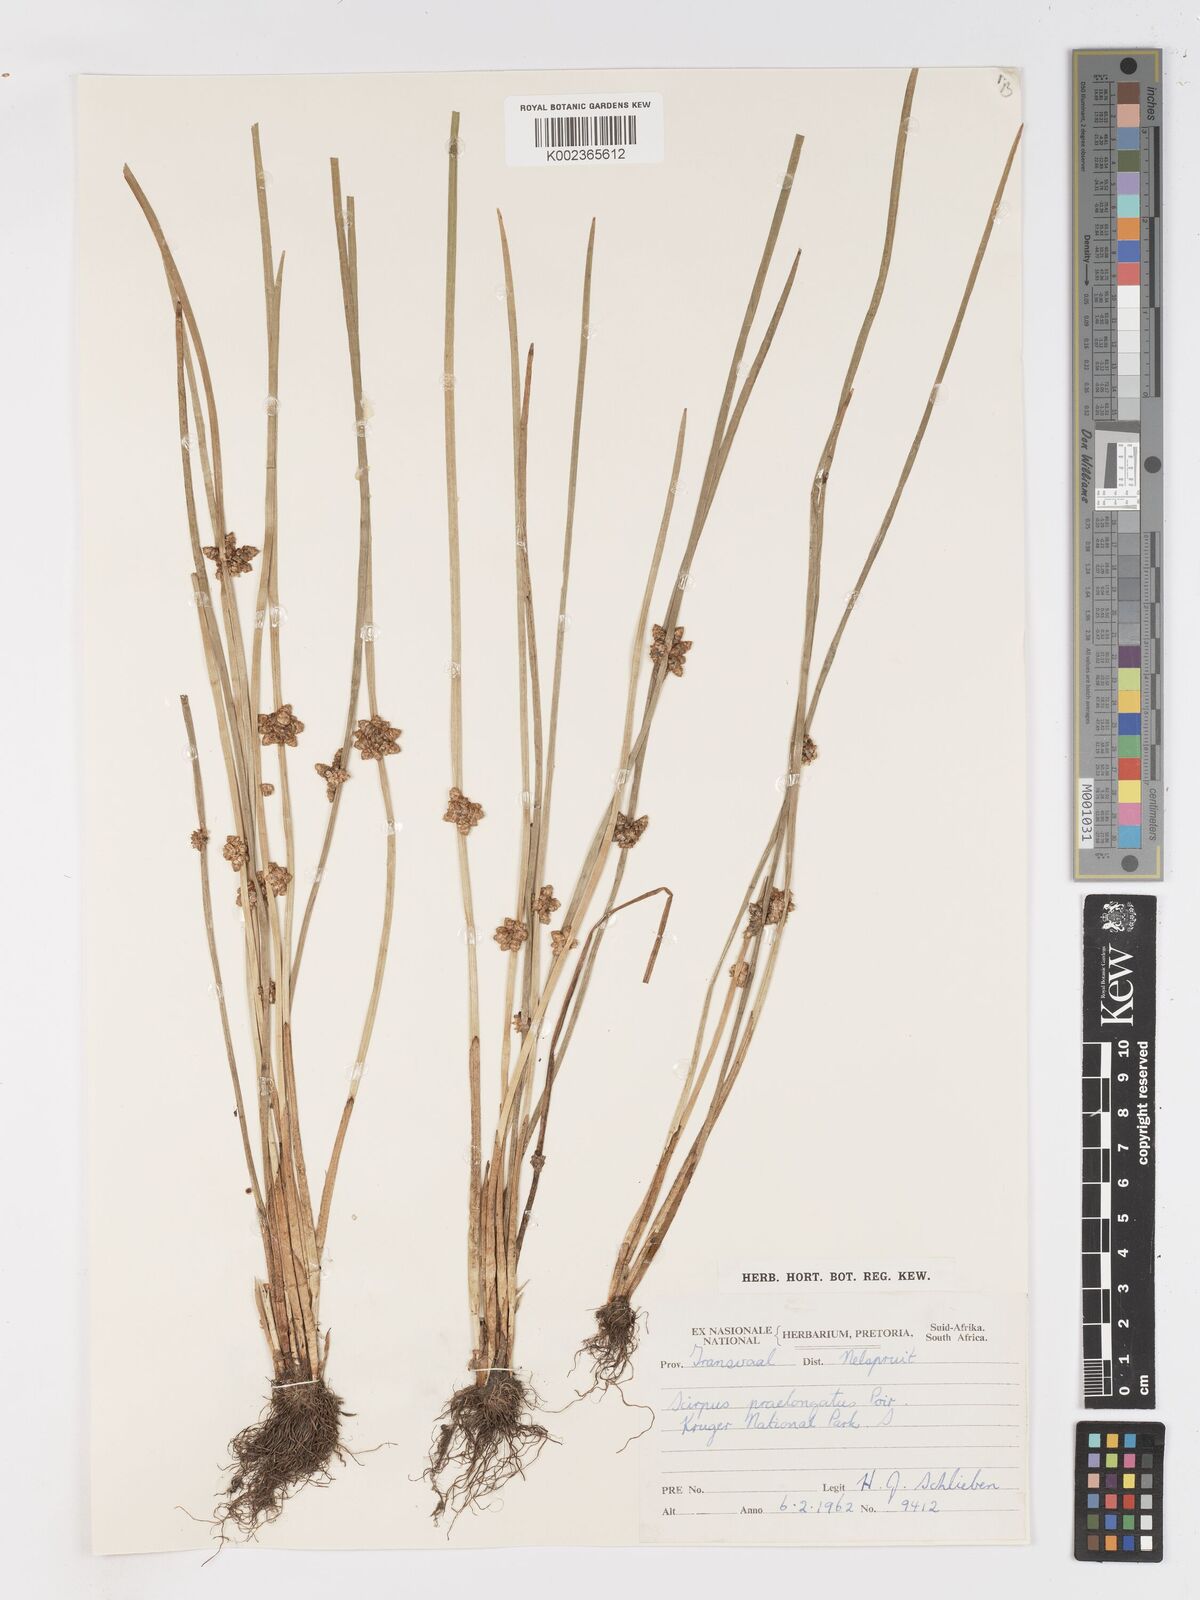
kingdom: Plantae
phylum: Tracheophyta
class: Liliopsida
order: Poales
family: Cyperaceae
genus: Schoenoplectiella
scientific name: Schoenoplectiella praelongata
